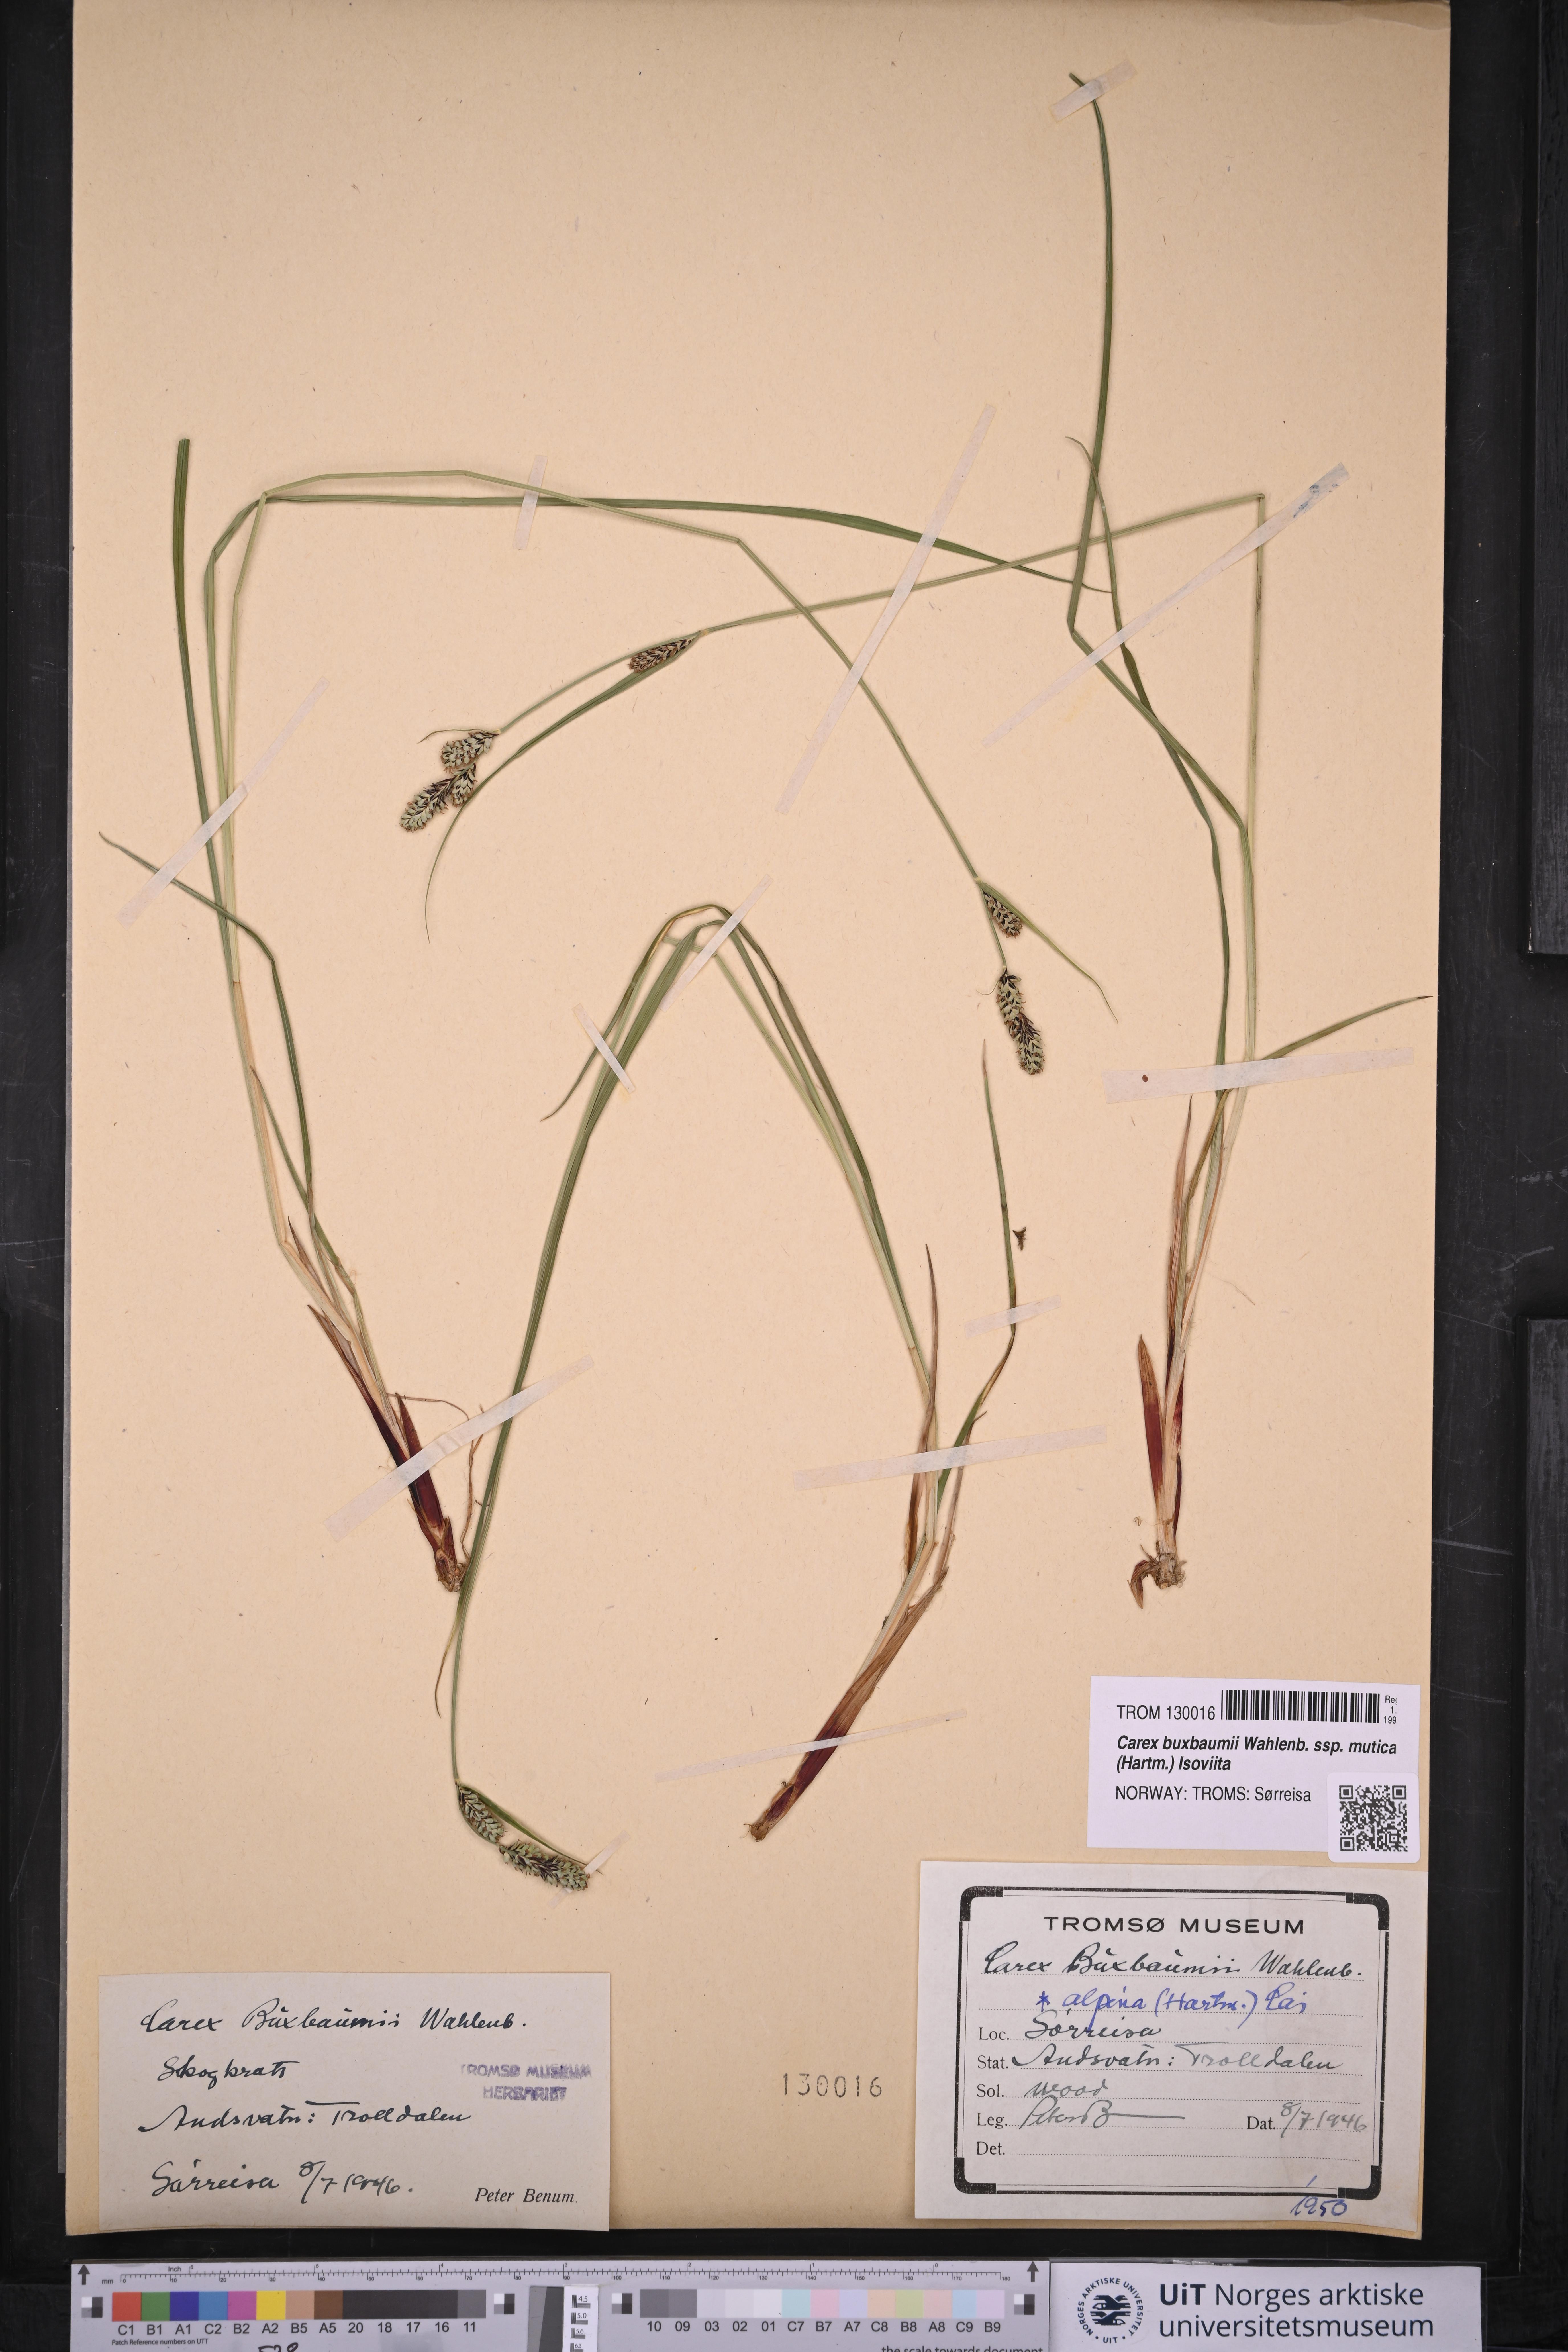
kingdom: Plantae
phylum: Tracheophyta
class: Liliopsida
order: Poales
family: Cyperaceae
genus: Carex
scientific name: Carex adelostoma
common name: Circumpolar sedge
